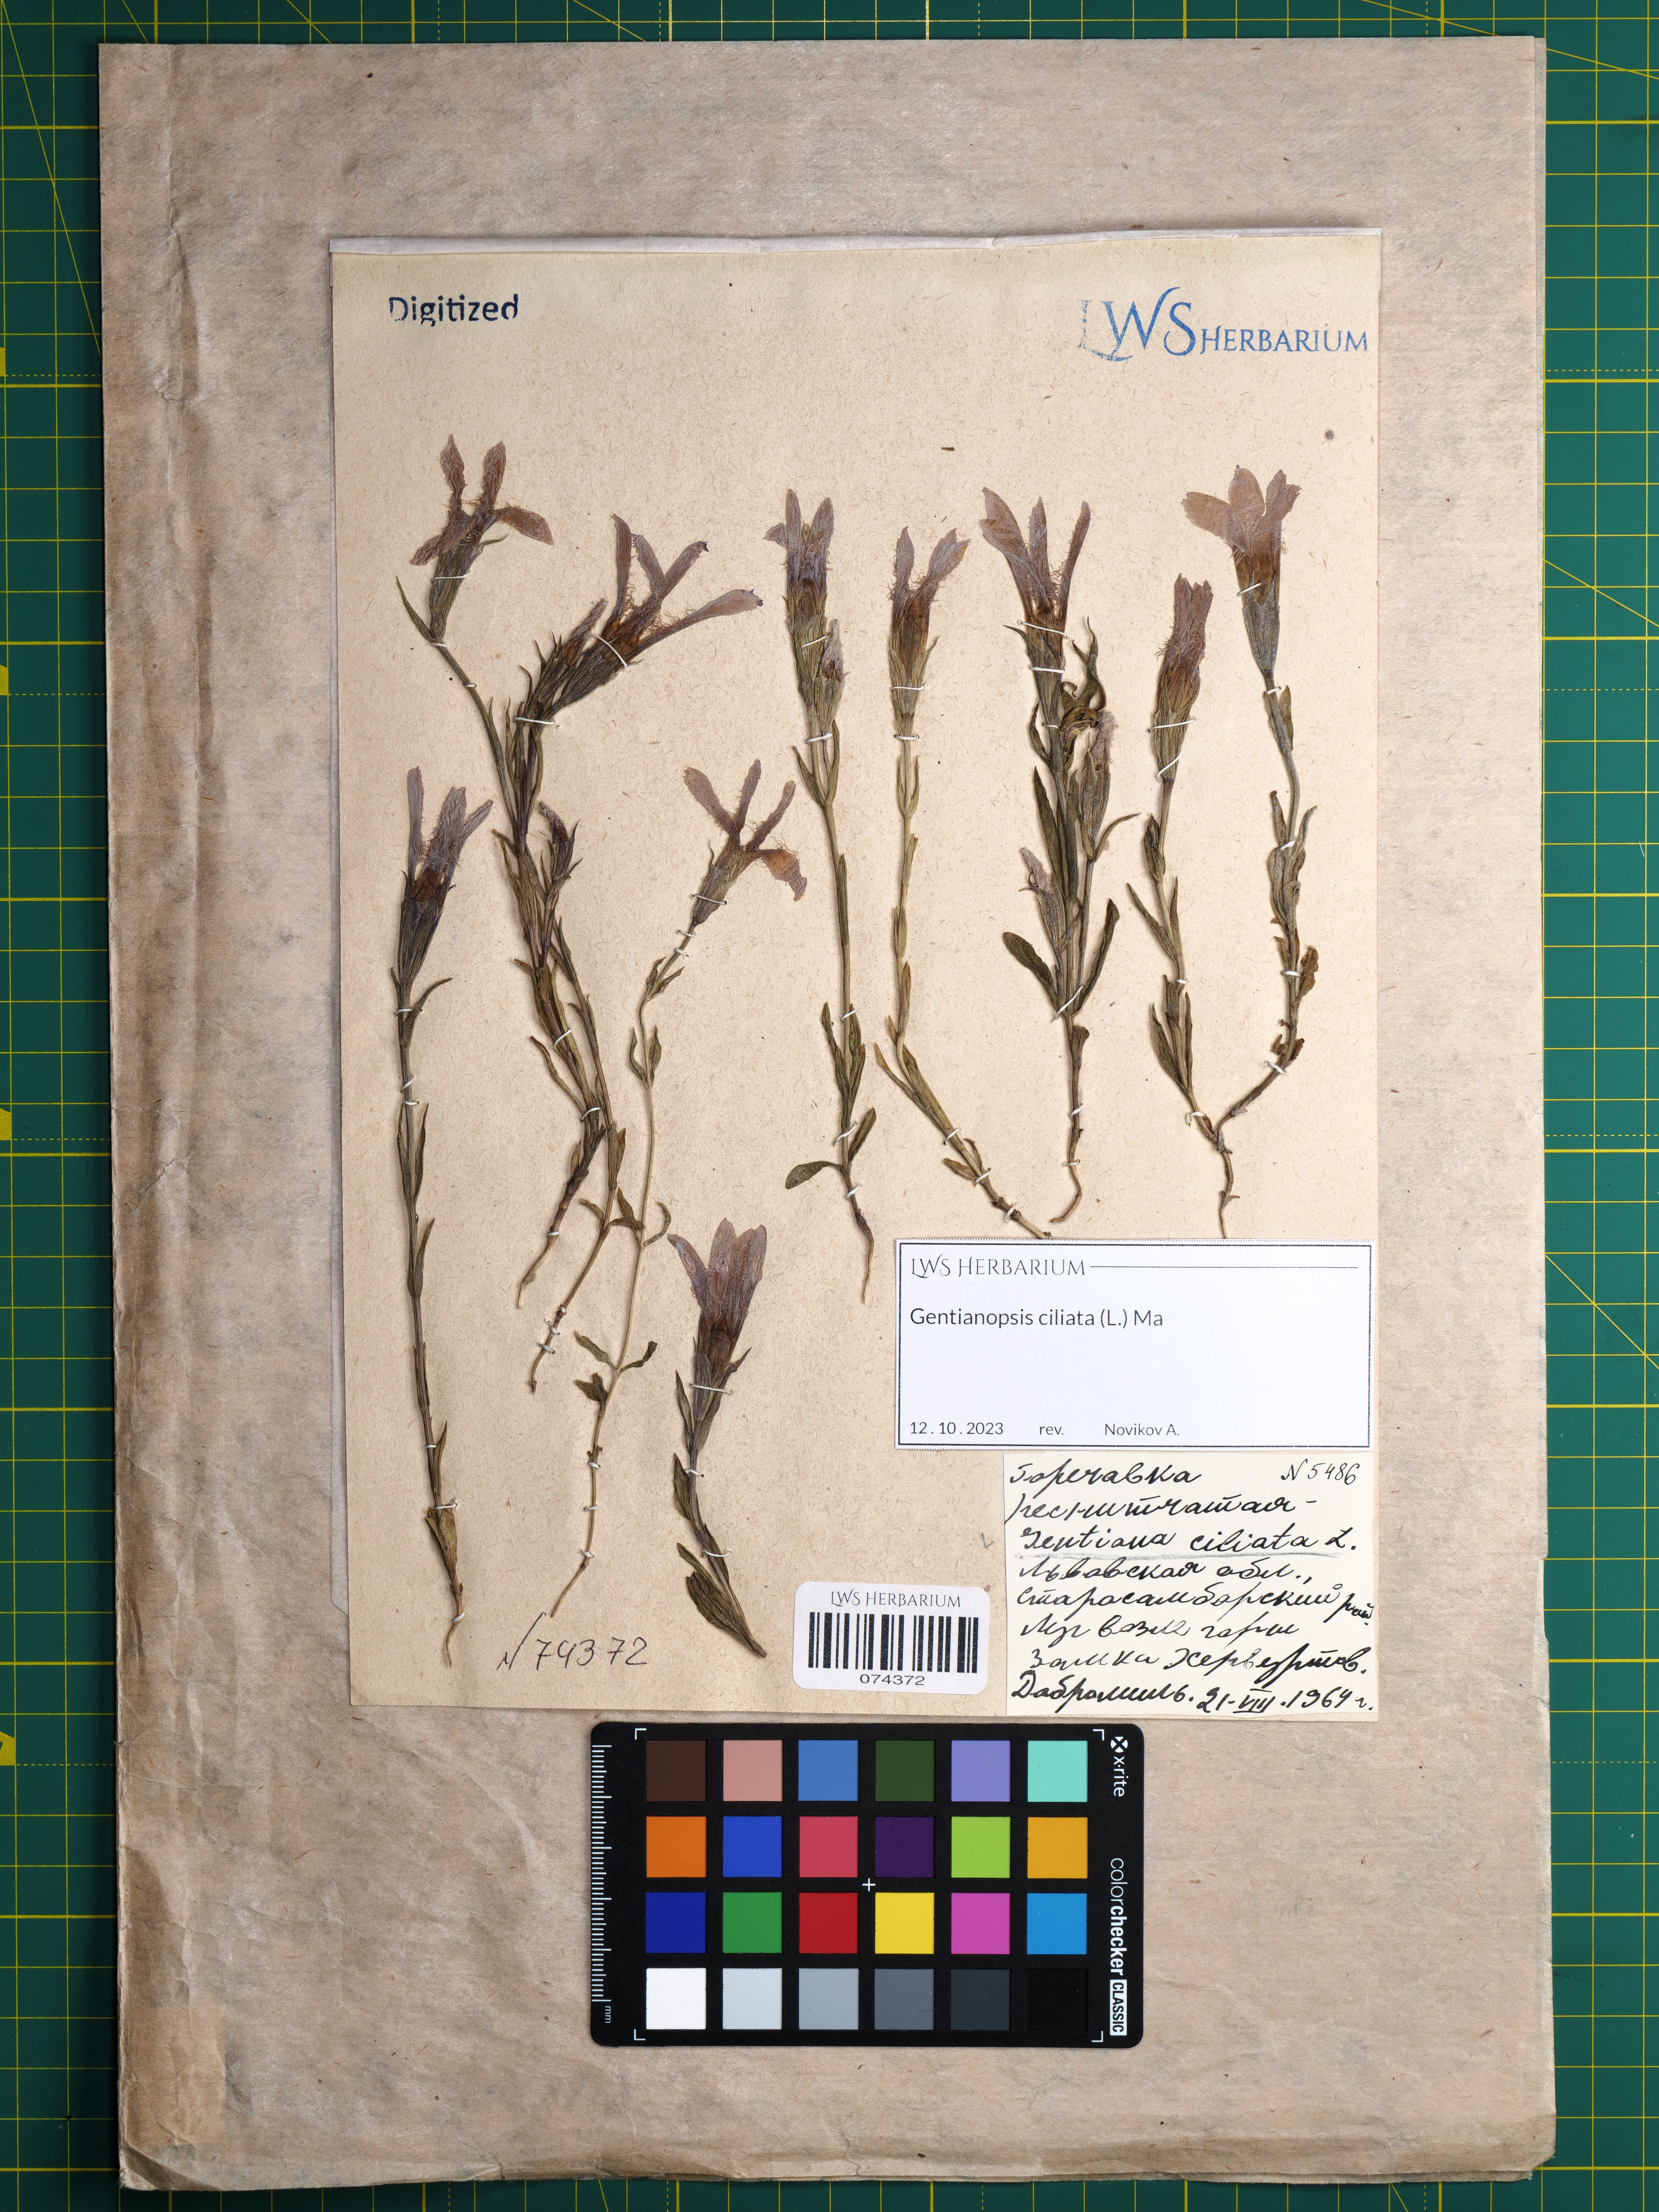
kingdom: Plantae
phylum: Tracheophyta
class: Magnoliopsida
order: Gentianales
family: Gentianaceae
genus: Gentianopsis
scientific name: Gentianopsis ciliata
